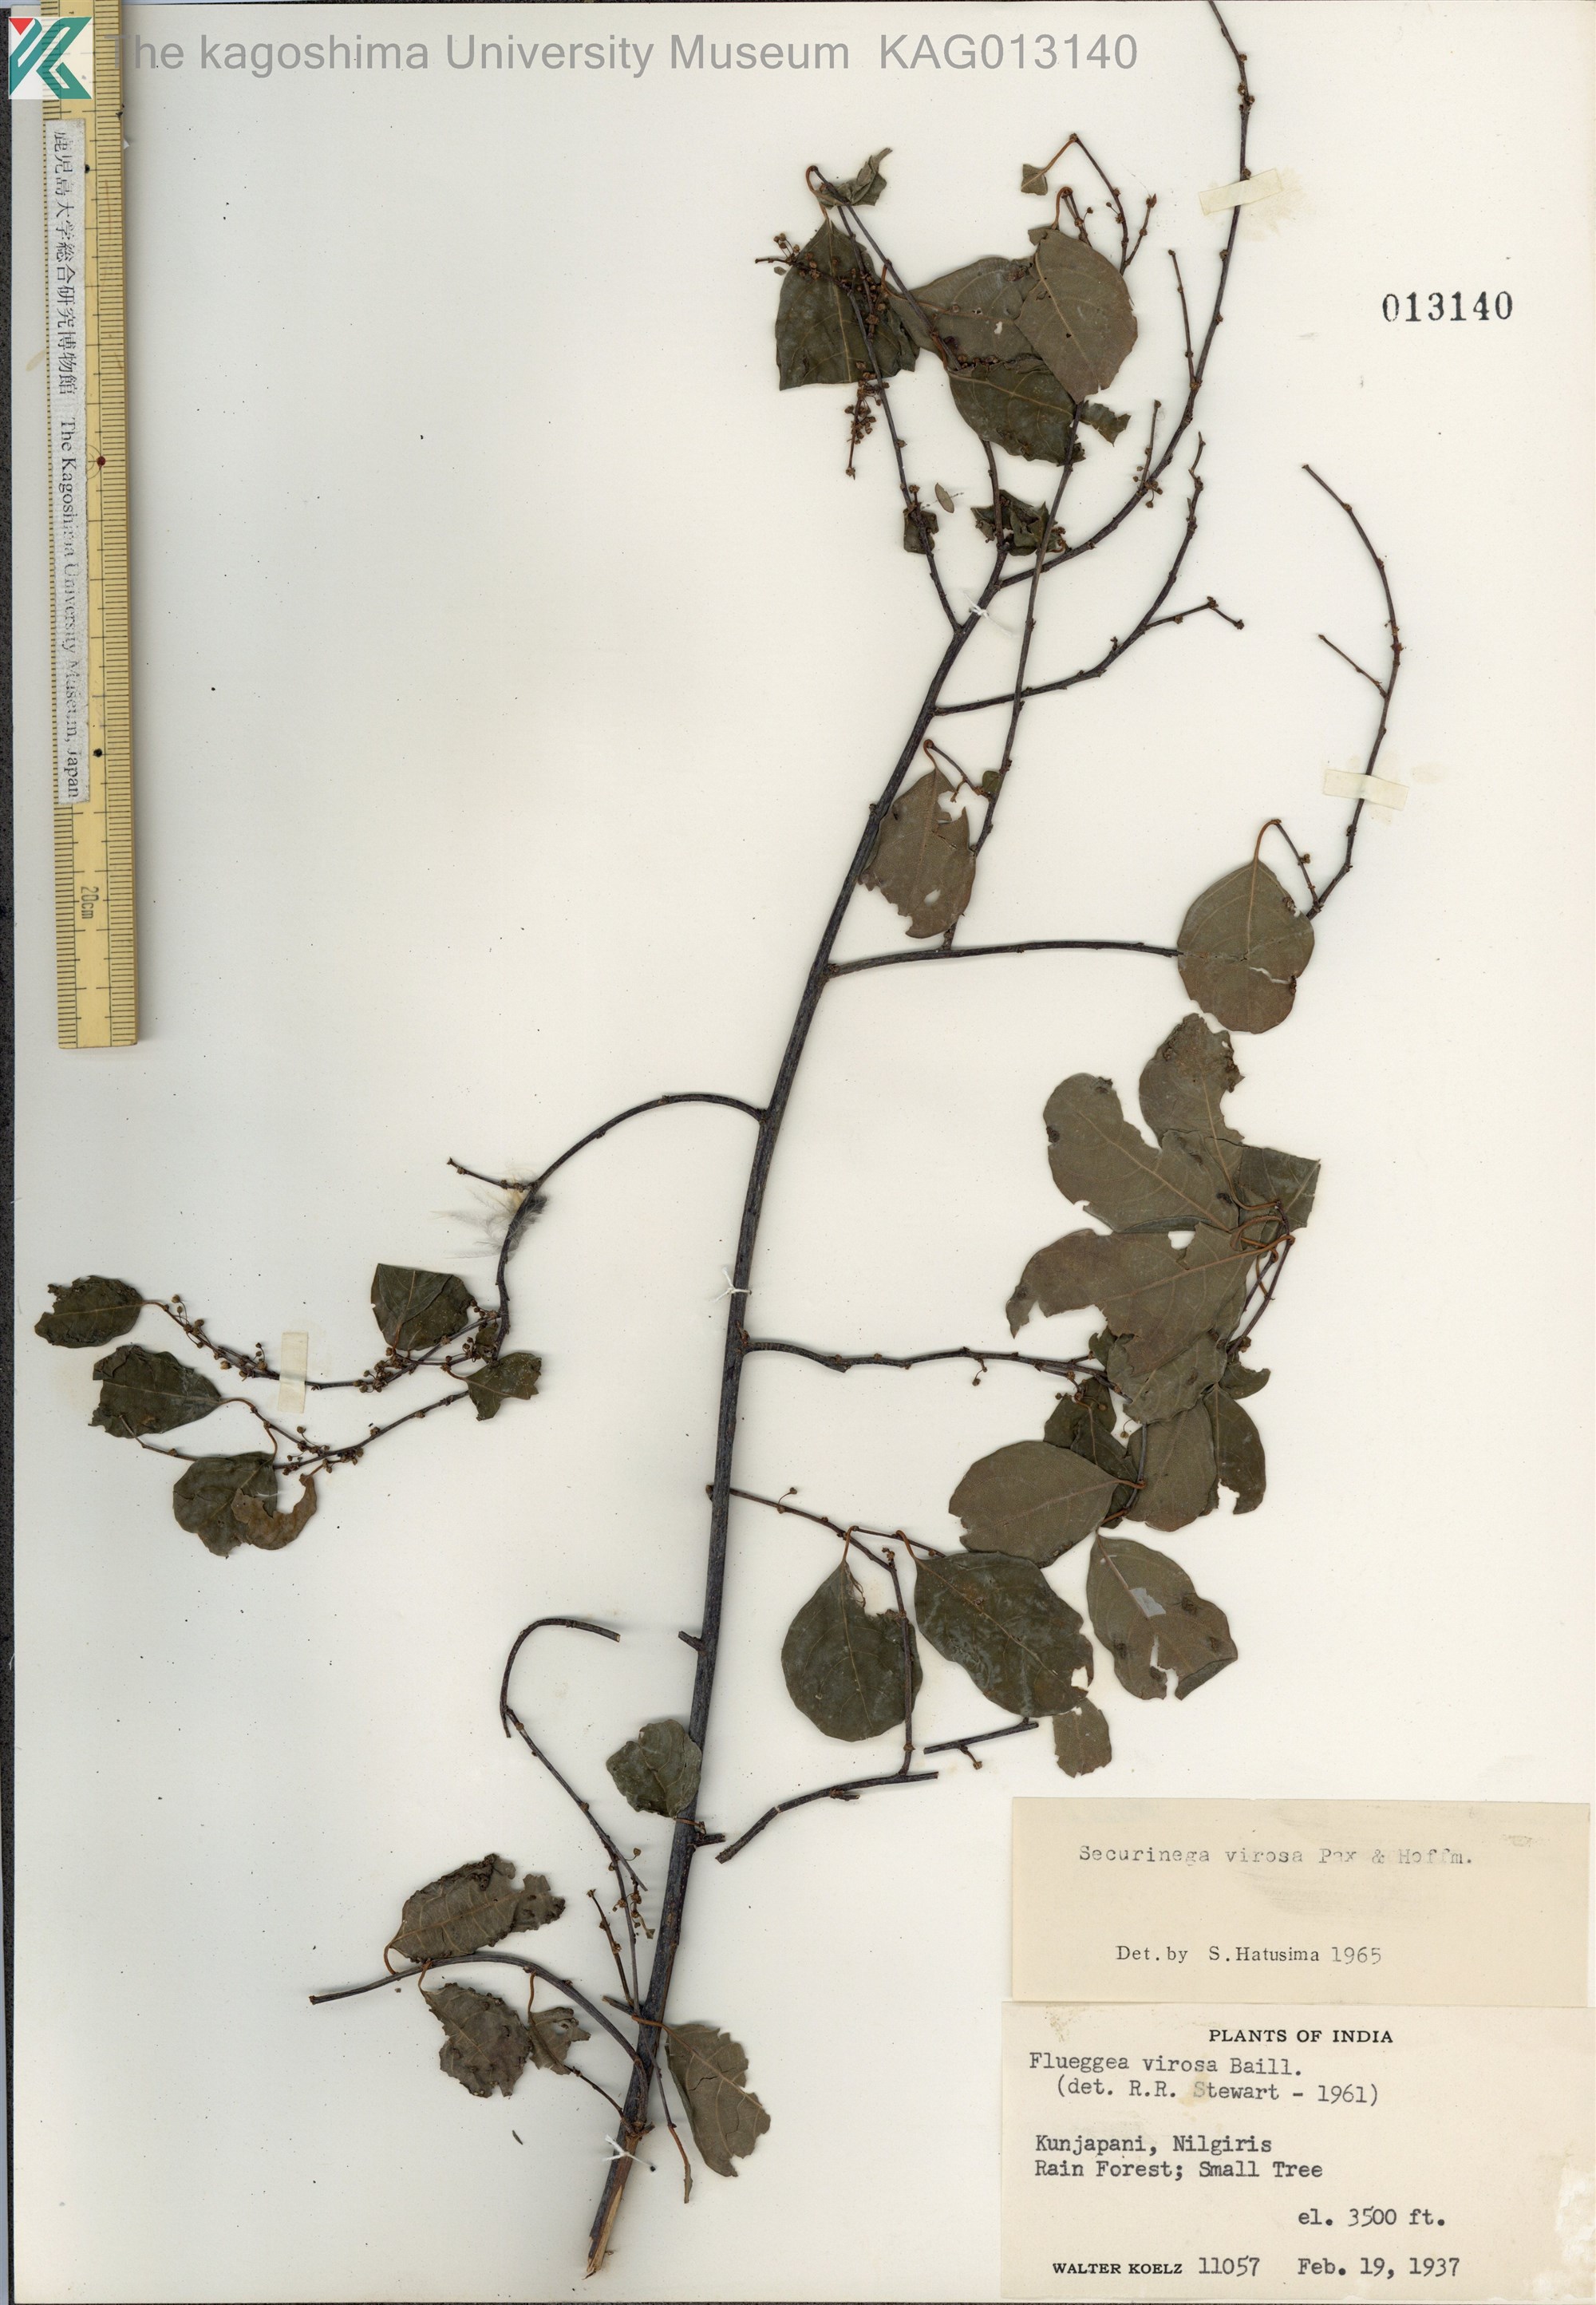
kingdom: Plantae
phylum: Tracheophyta
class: Magnoliopsida
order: Malpighiales
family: Phyllanthaceae
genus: Flueggea
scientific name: Flueggea virosa
